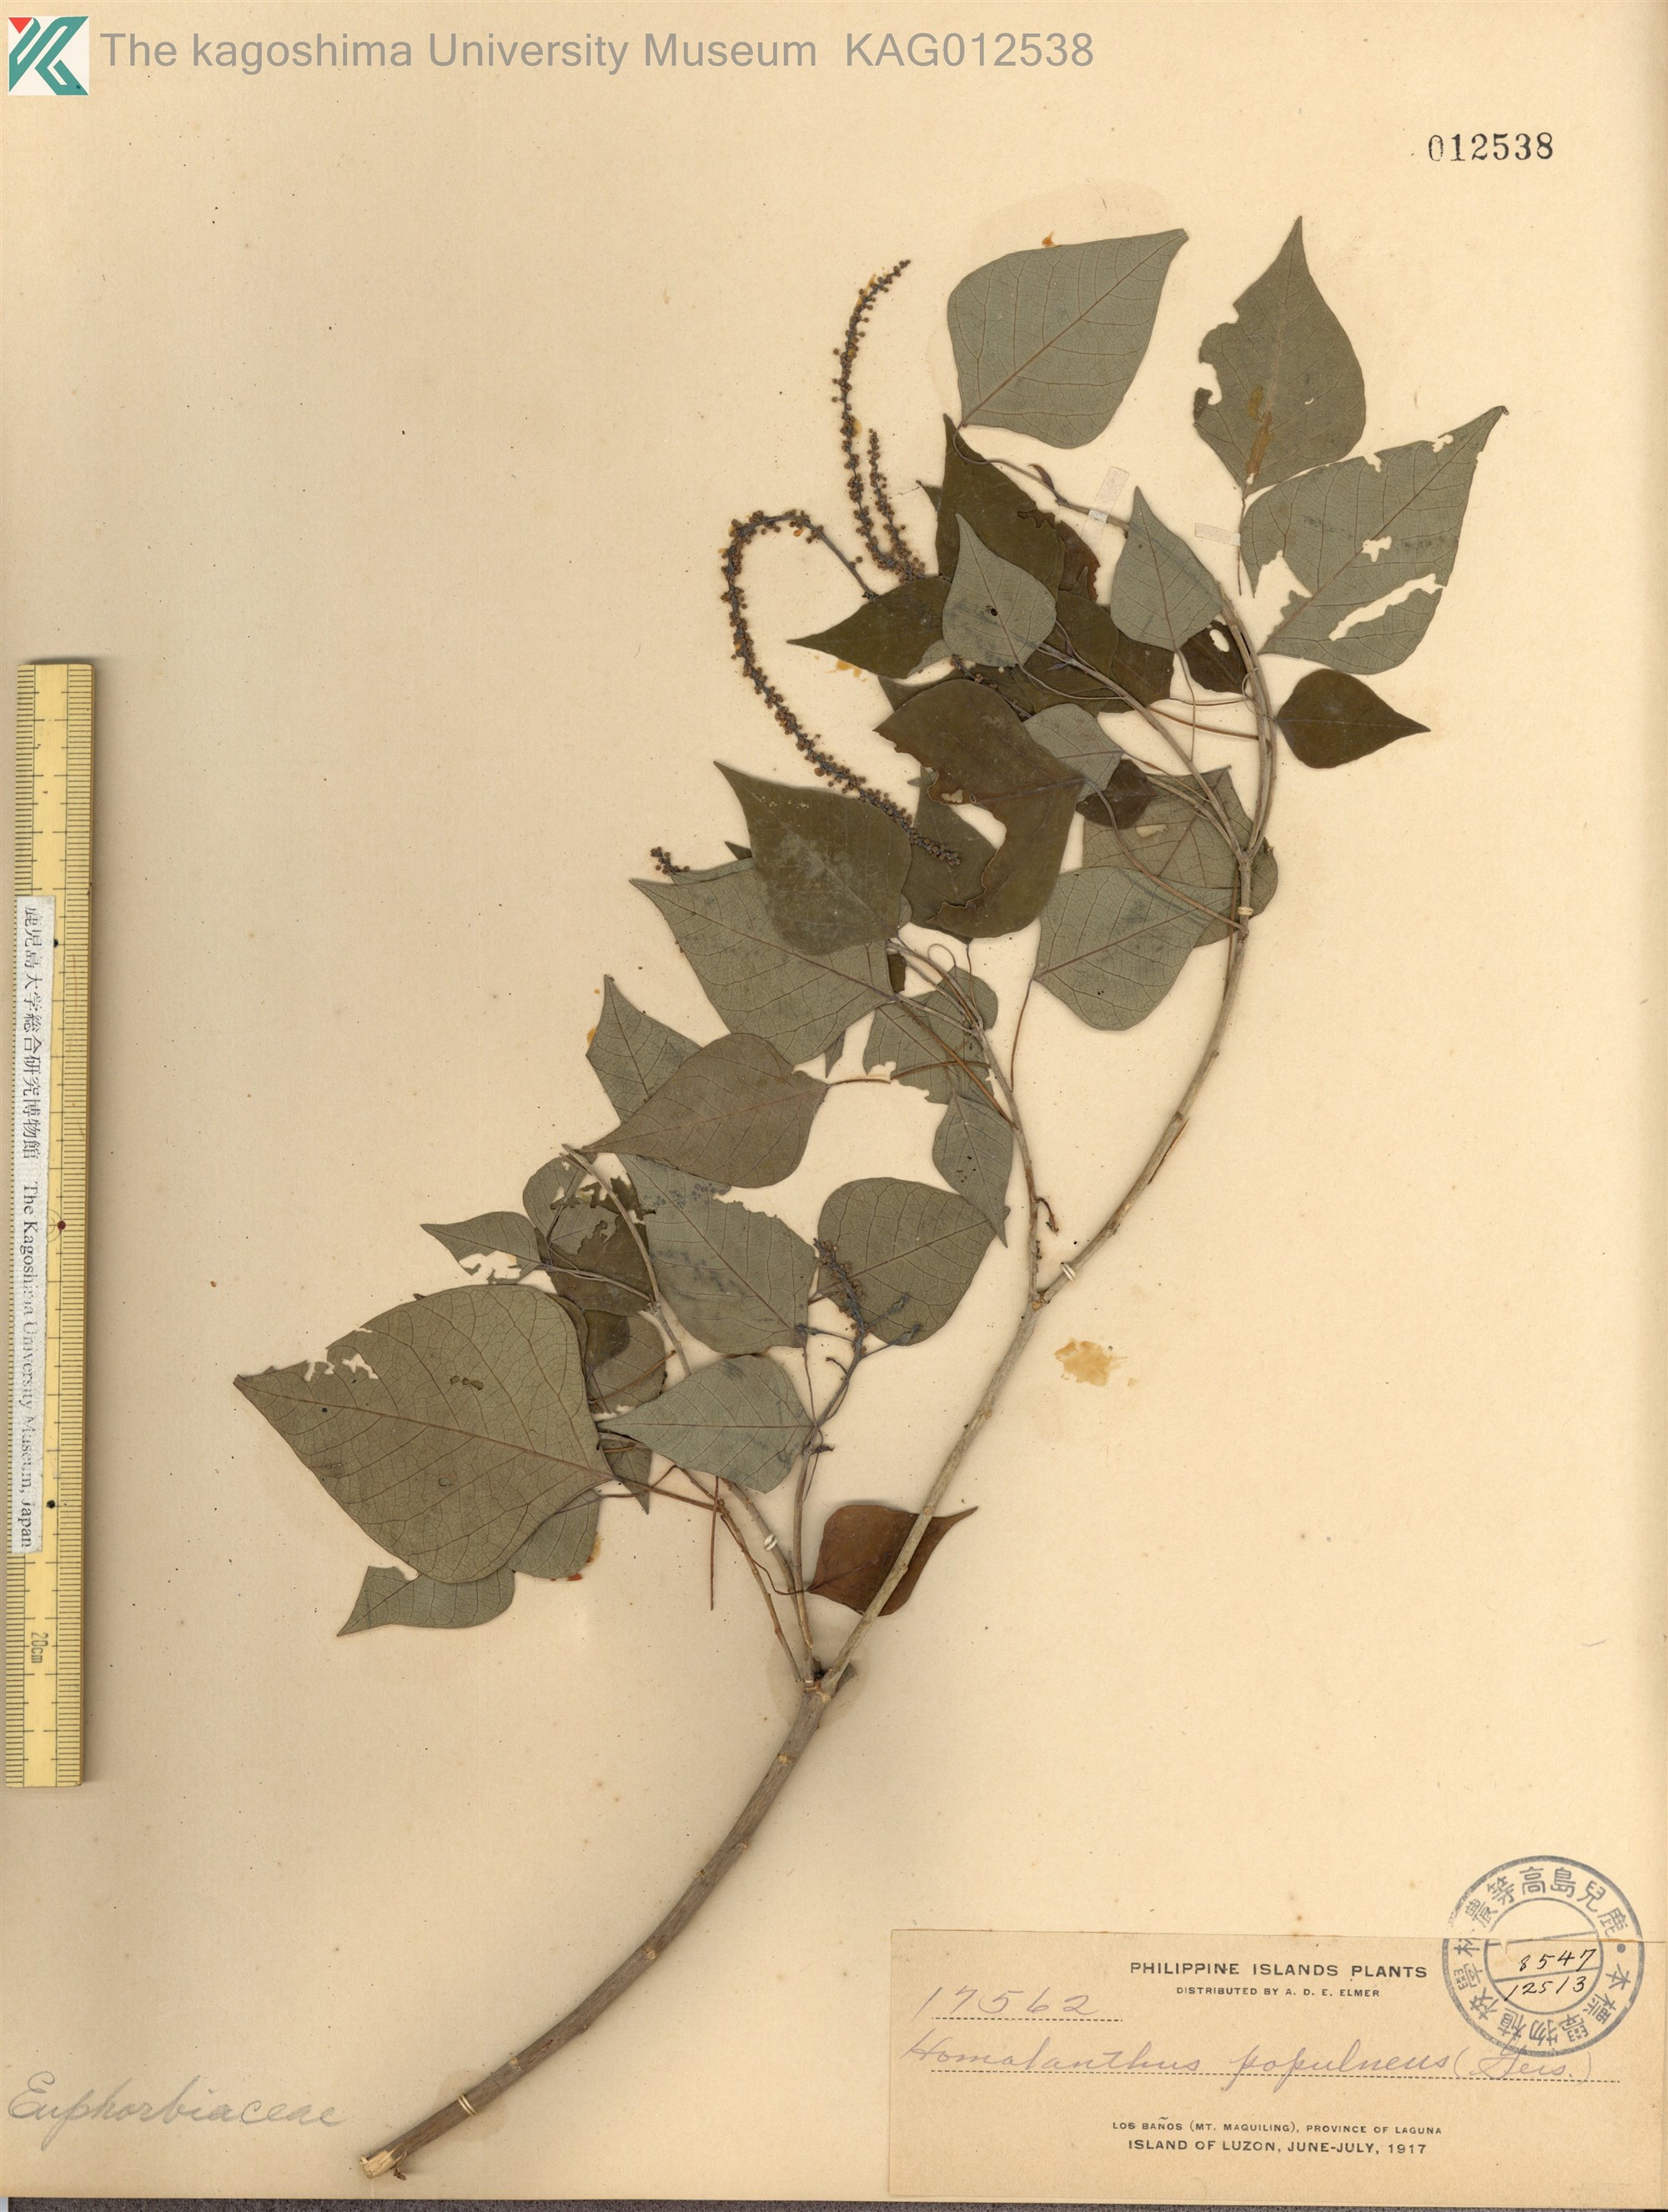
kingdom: Plantae
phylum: Tracheophyta
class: Magnoliopsida
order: Malpighiales
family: Euphorbiaceae
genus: Homalanthus
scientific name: Homalanthus populneus
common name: Spurge
